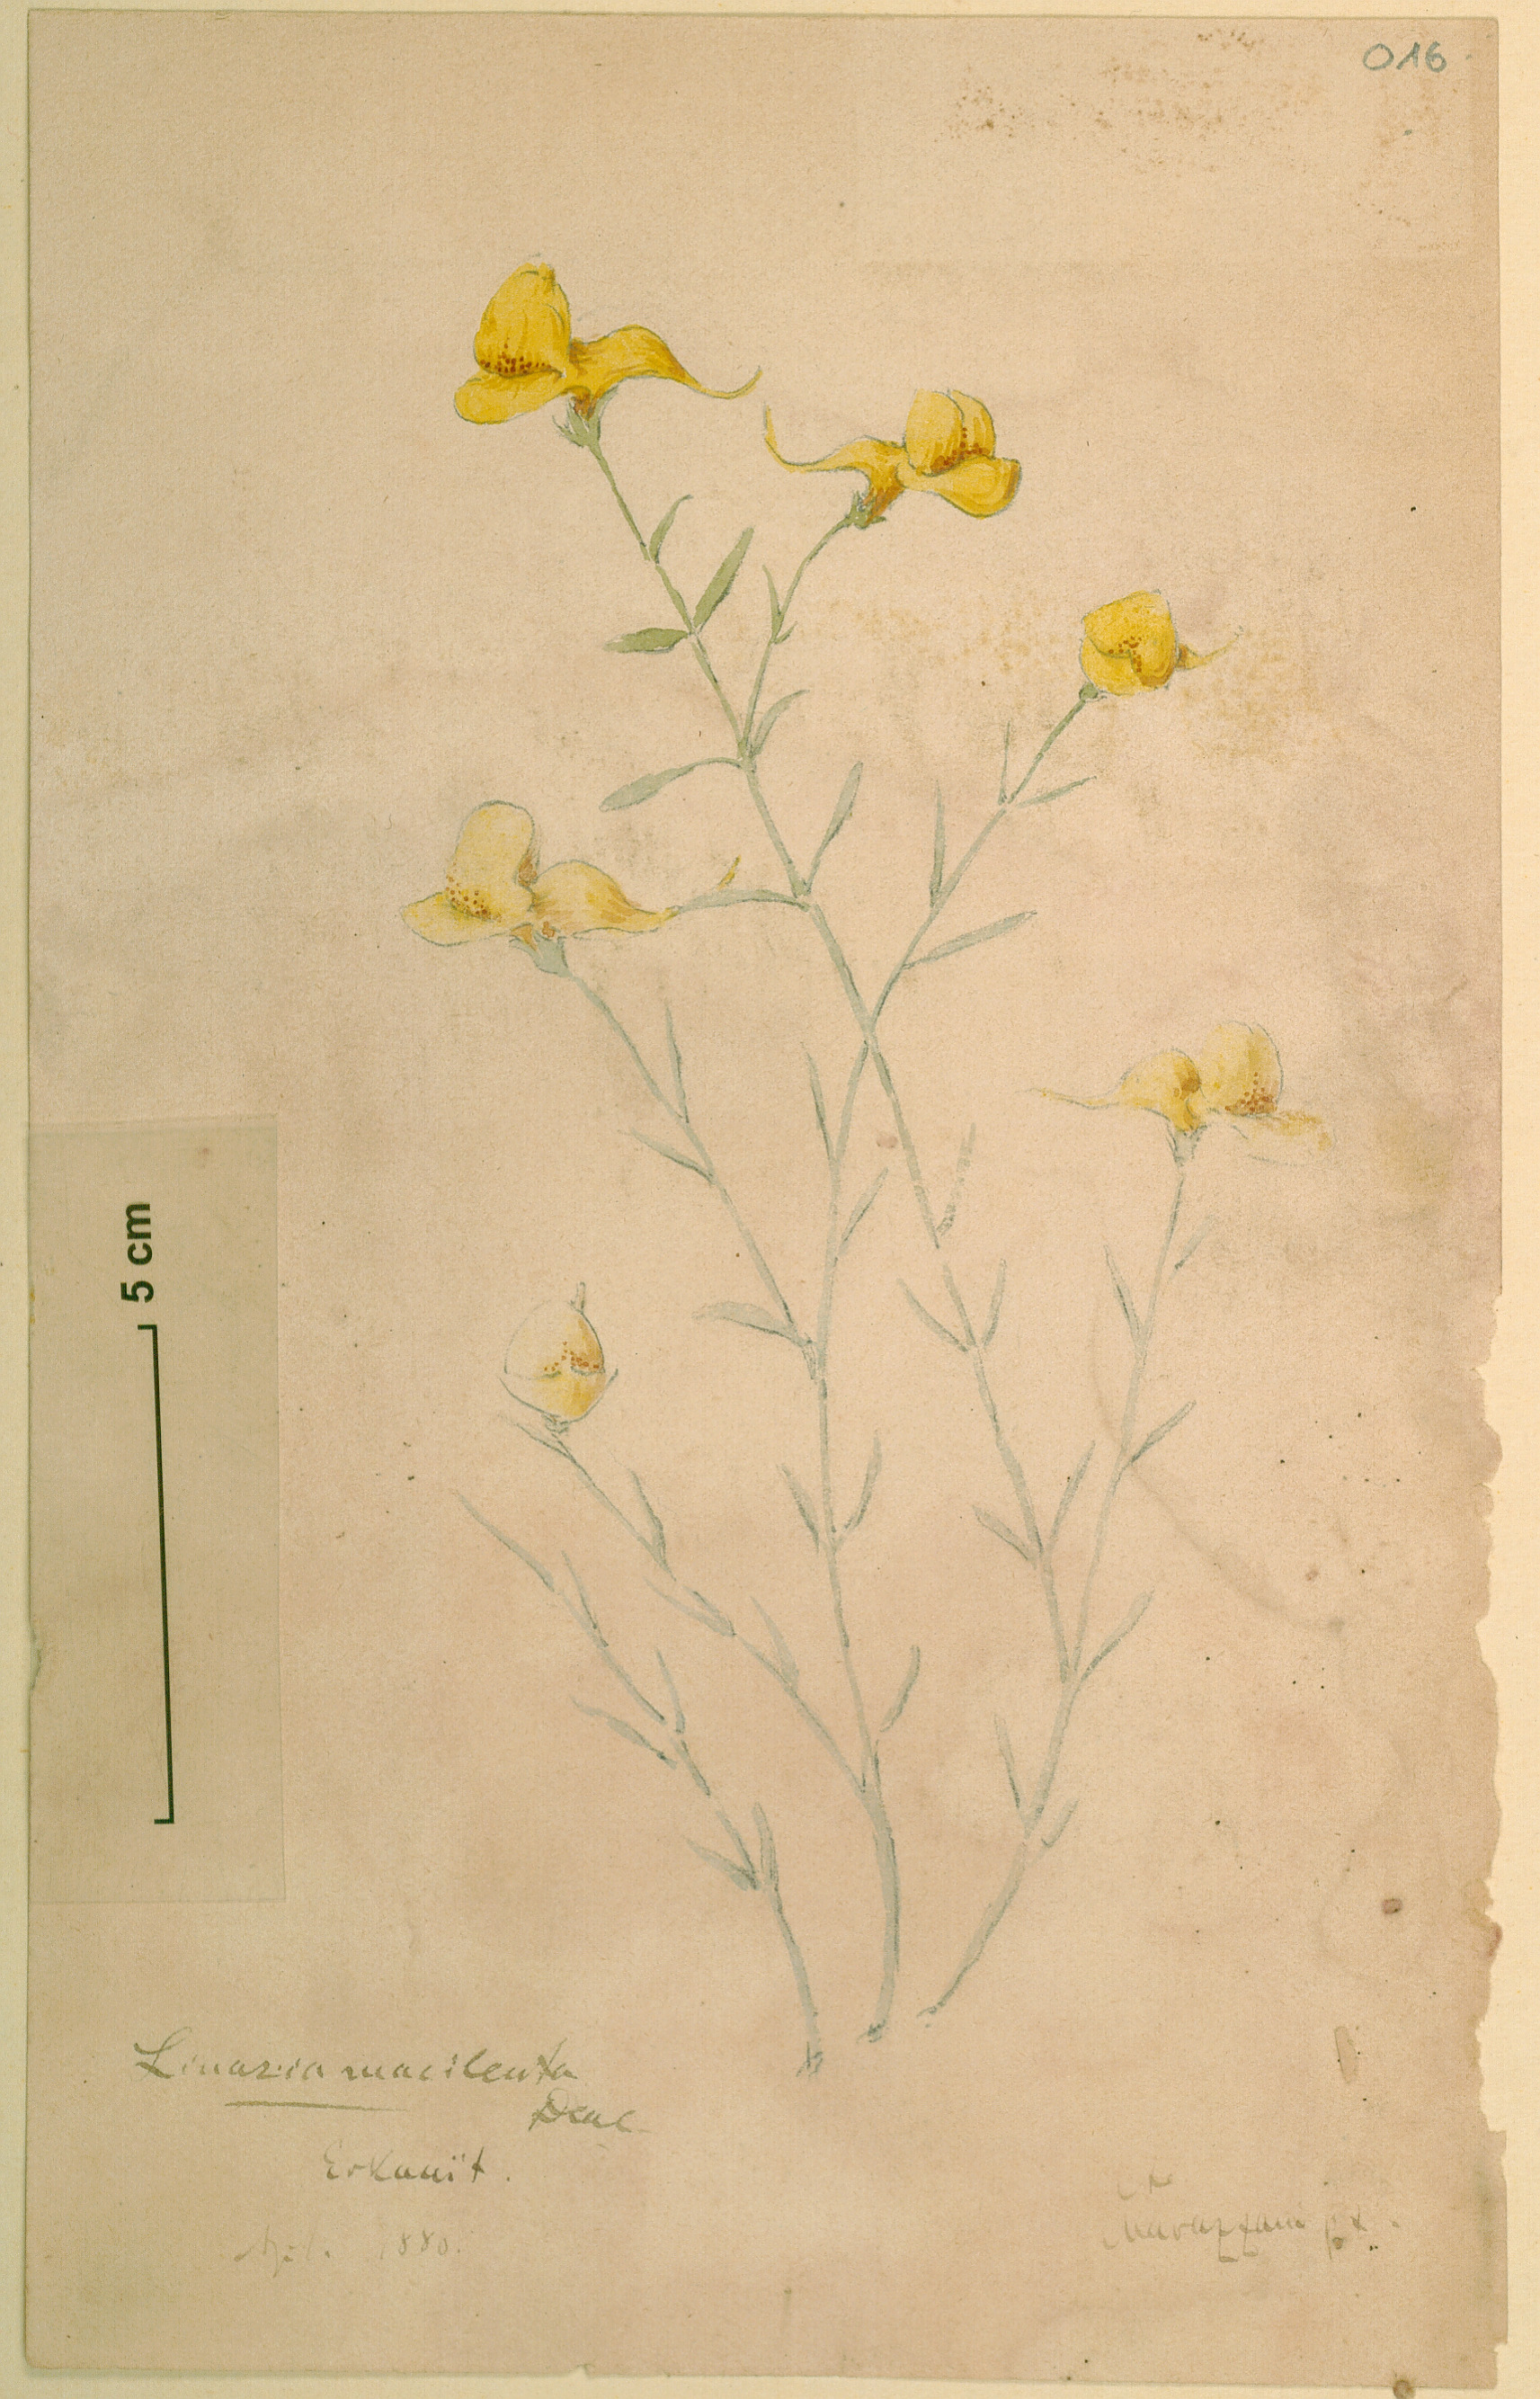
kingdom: Plantae
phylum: Tracheophyta
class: Magnoliopsida
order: Lamiales
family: Plantaginaceae
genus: Nanorrhinum
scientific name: Nanorrhinum macilentum
